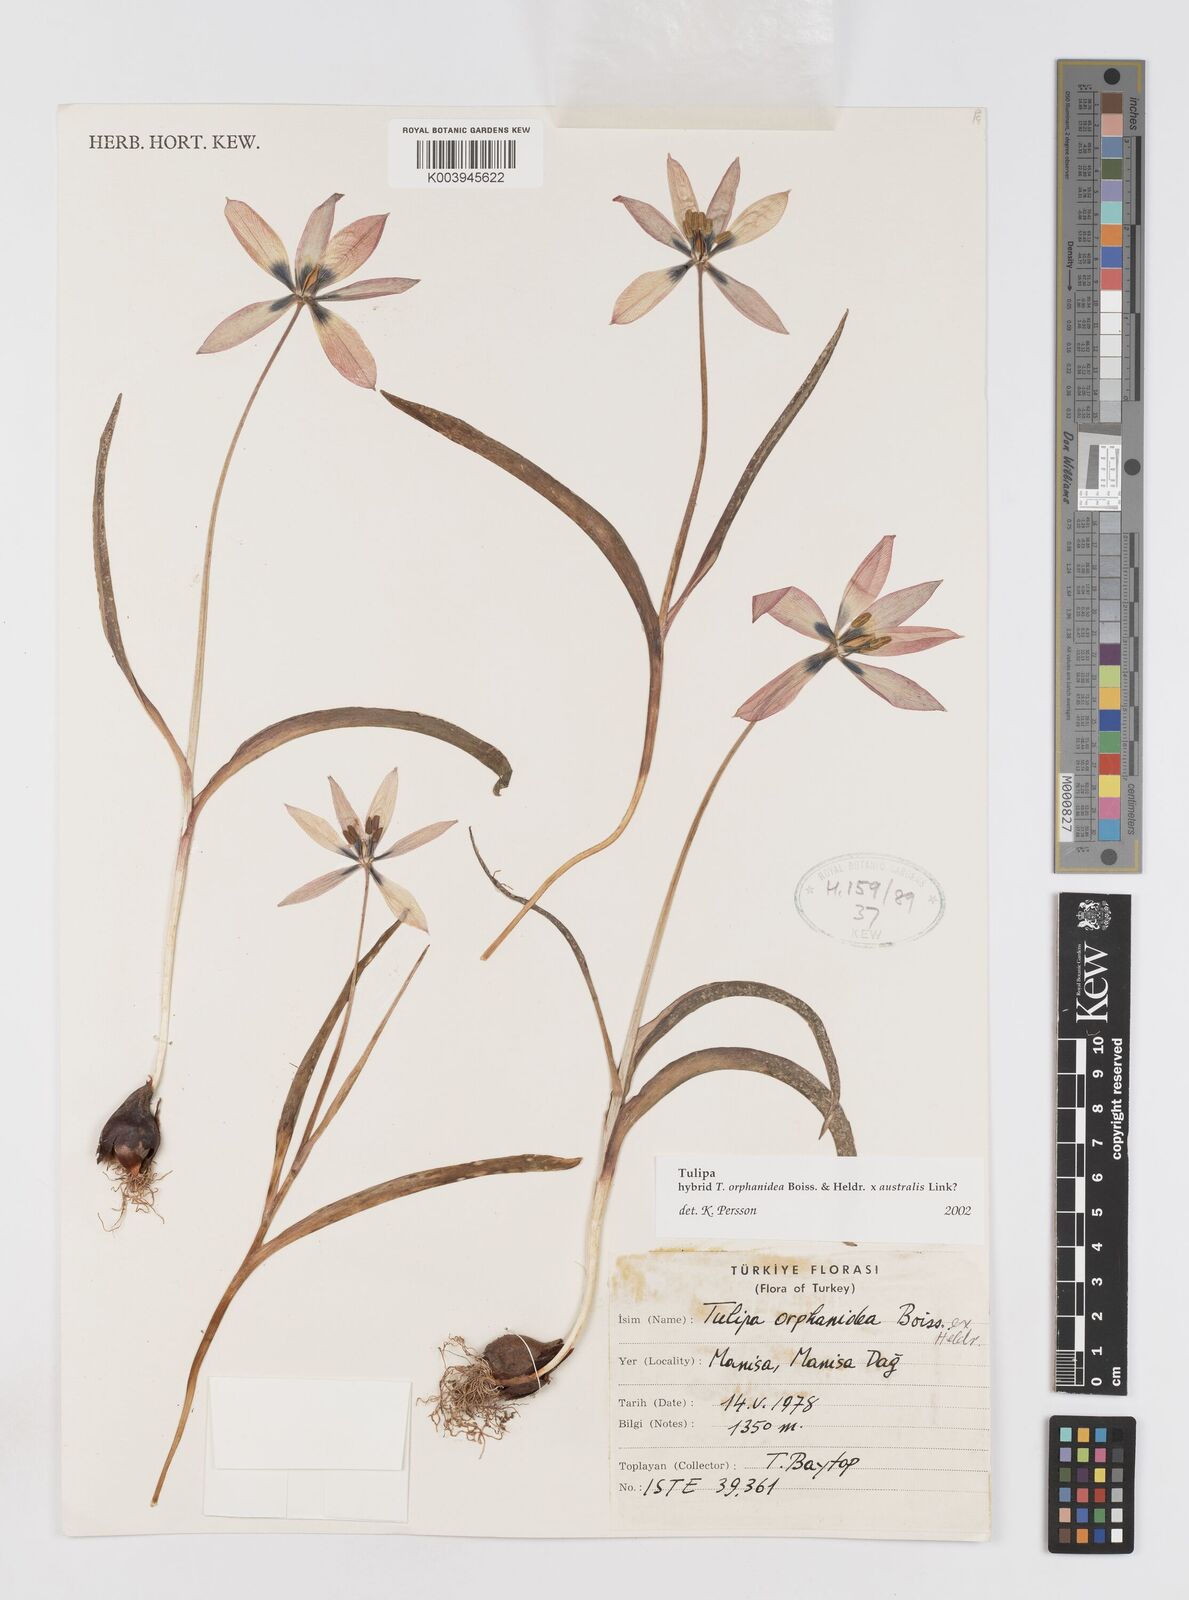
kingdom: Plantae
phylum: Tracheophyta
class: Liliopsida
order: Liliales
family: Liliaceae
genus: Tulipa
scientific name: Tulipa orphanidea
